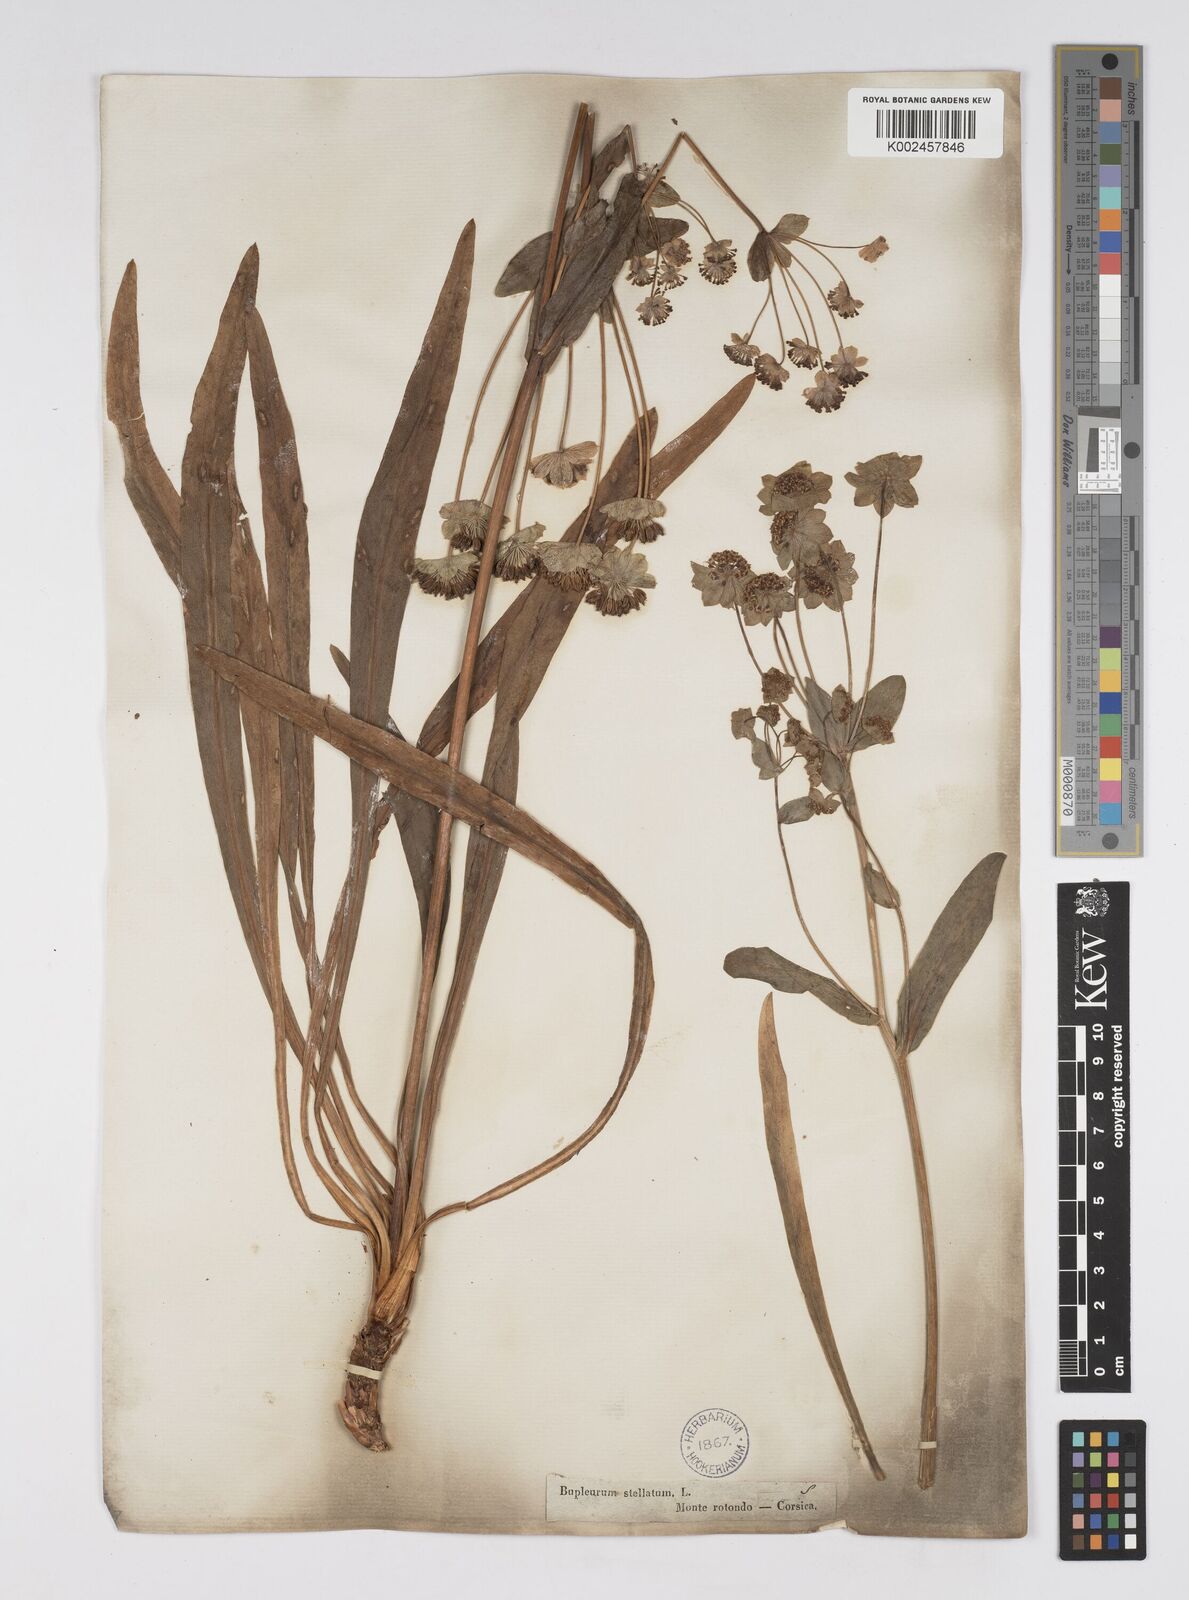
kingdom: Plantae
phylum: Tracheophyta
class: Magnoliopsida
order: Apiales
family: Apiaceae
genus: Bupleurum
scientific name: Bupleurum stellatum
